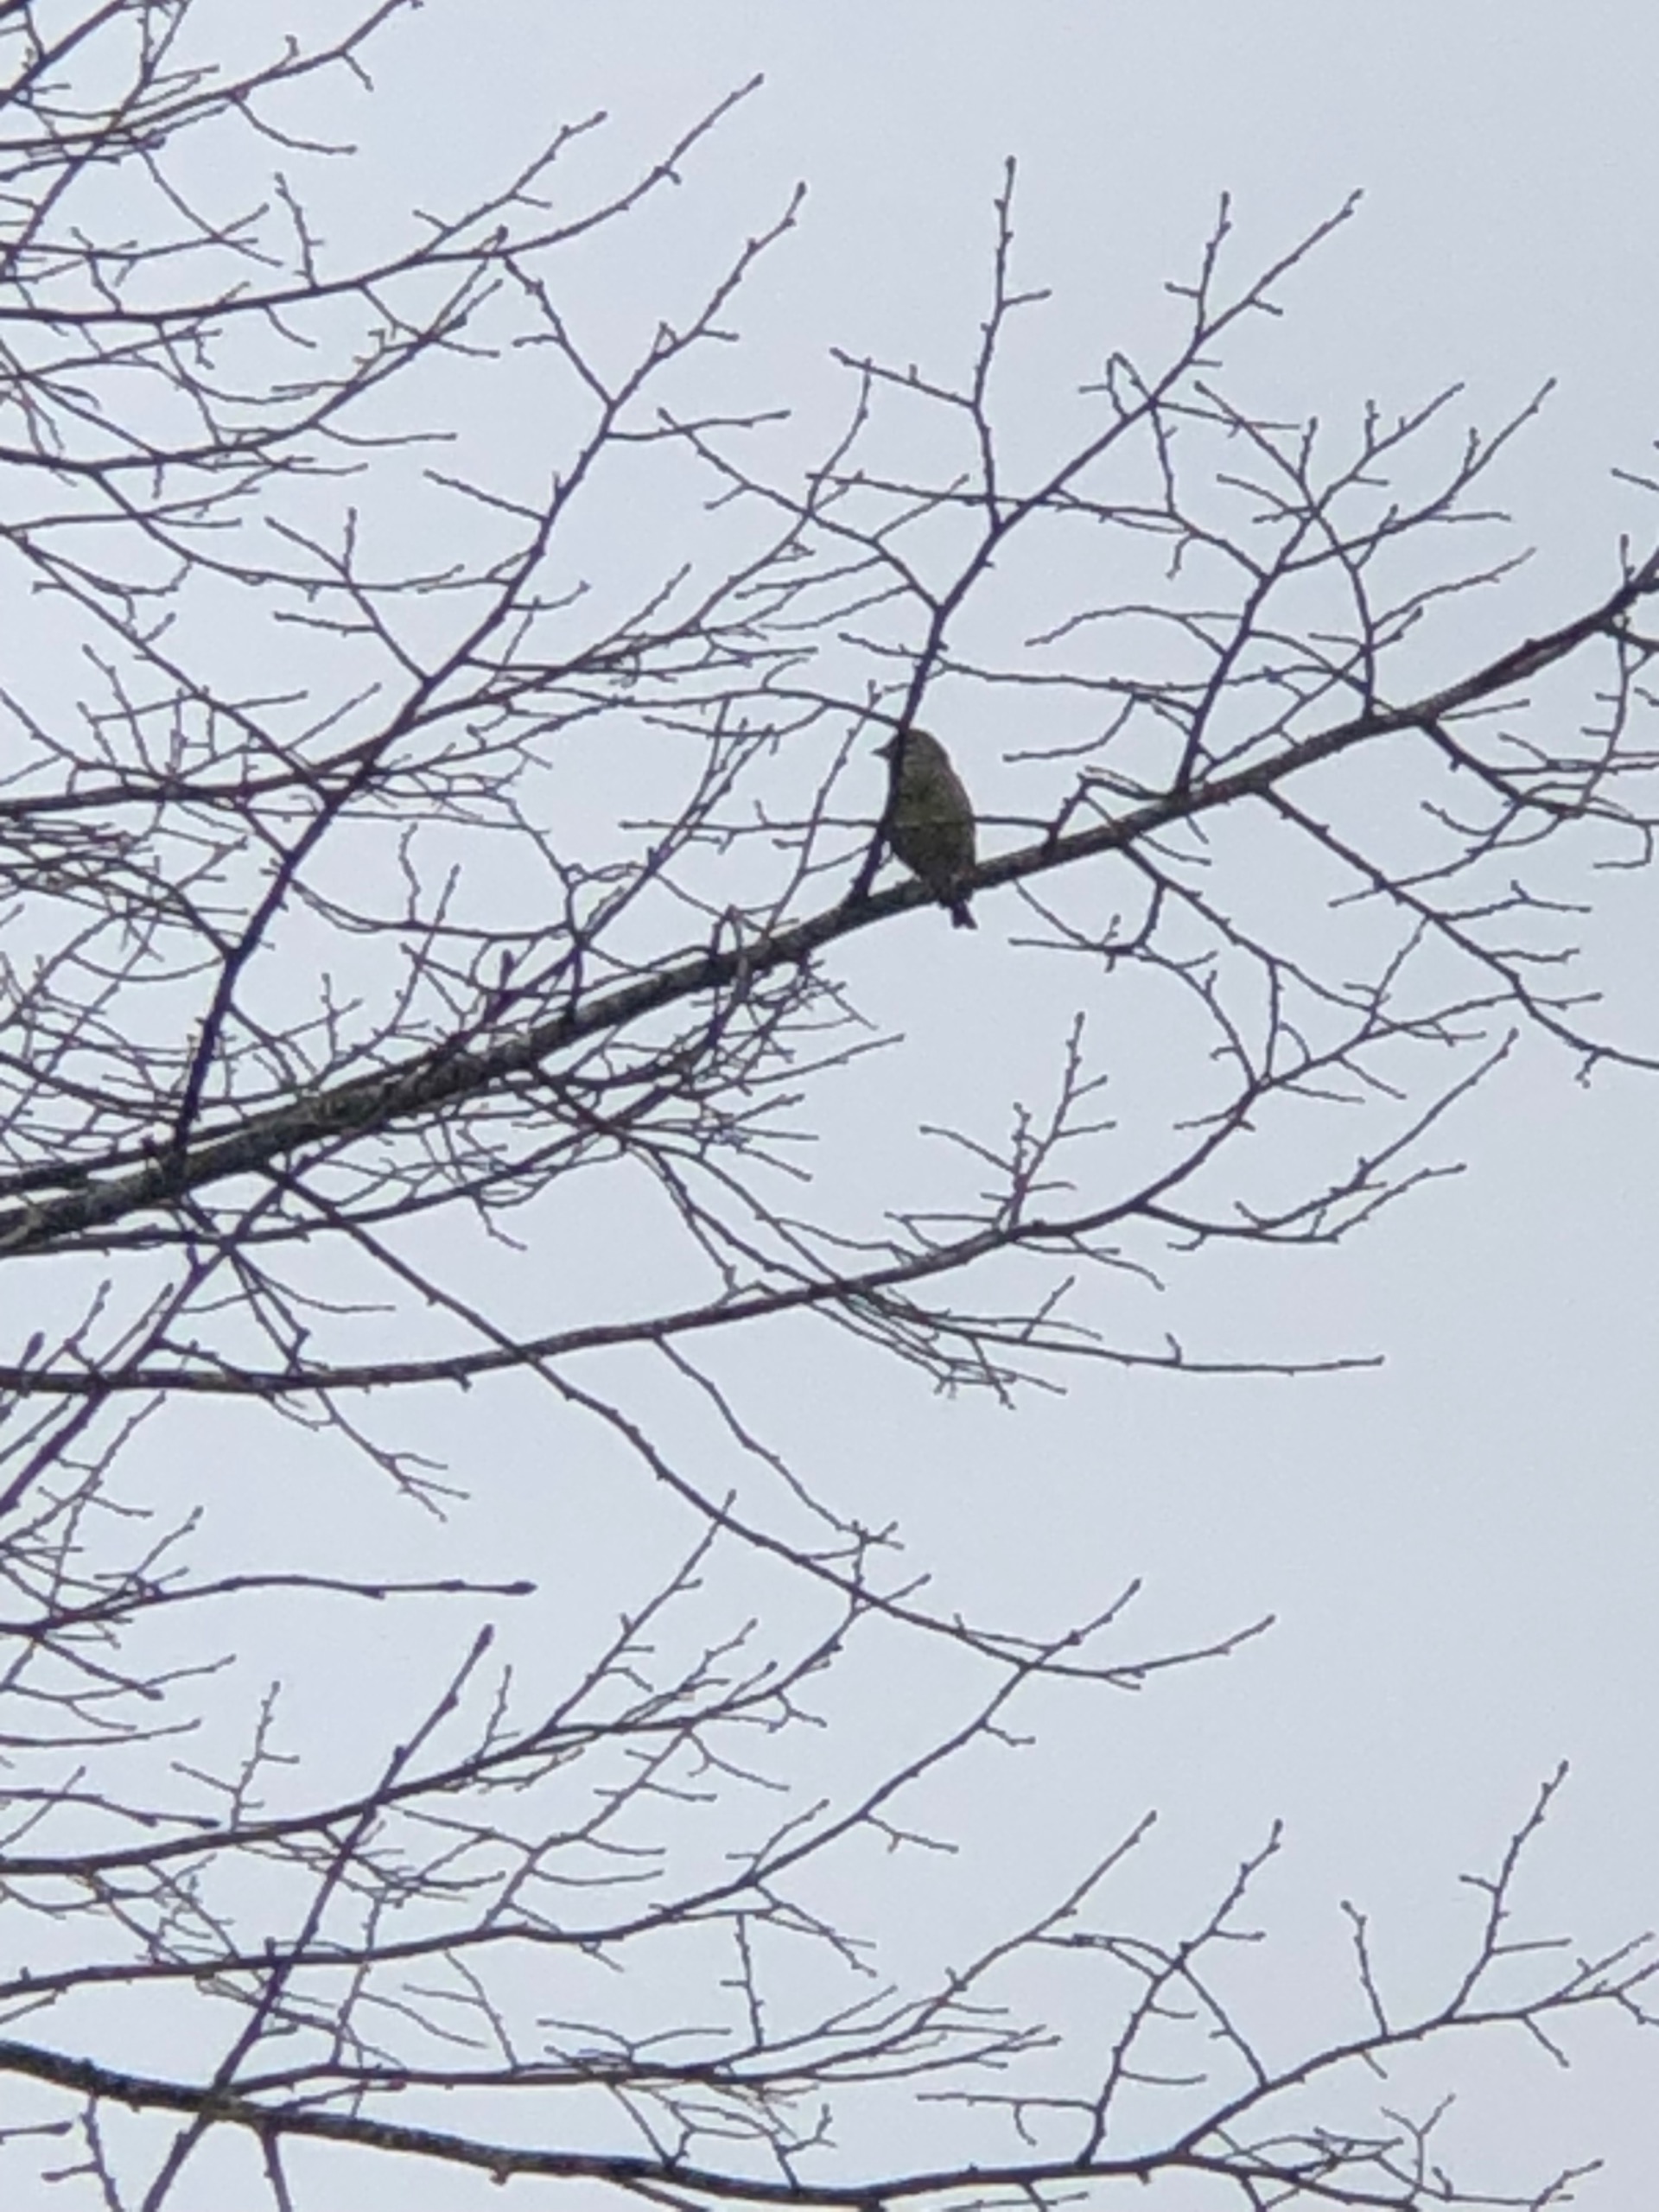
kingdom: Plantae
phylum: Tracheophyta
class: Liliopsida
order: Poales
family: Poaceae
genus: Chloris
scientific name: Chloris chloris
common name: Grønirisk
